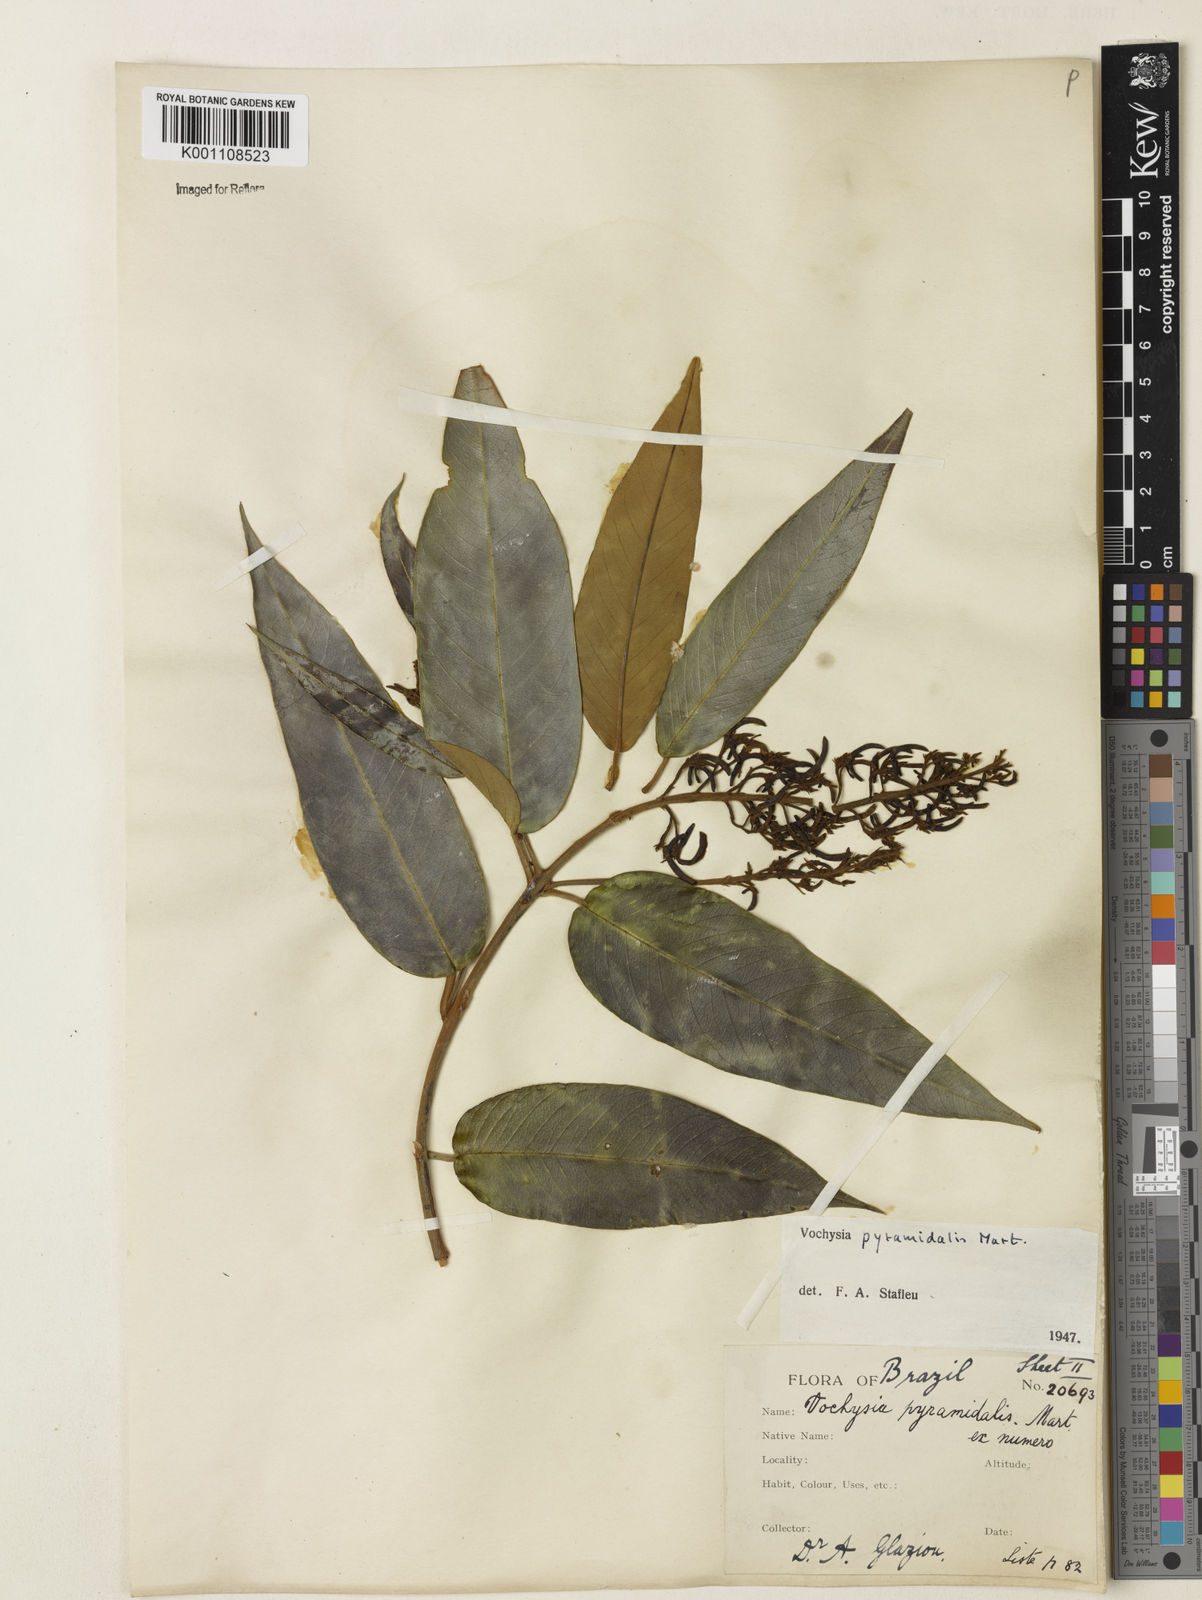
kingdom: Plantae
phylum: Tracheophyta
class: Magnoliopsida
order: Myrtales
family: Vochysiaceae
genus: Vochysia
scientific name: Vochysia pyramidalis
